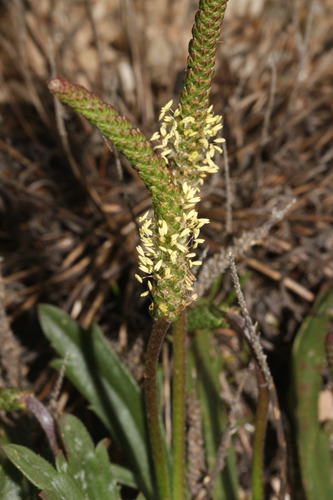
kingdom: Plantae
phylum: Tracheophyta
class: Magnoliopsida
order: Lamiales
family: Plantaginaceae
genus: Plantago
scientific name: Plantago coronopus
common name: Buck's-horn plantain
